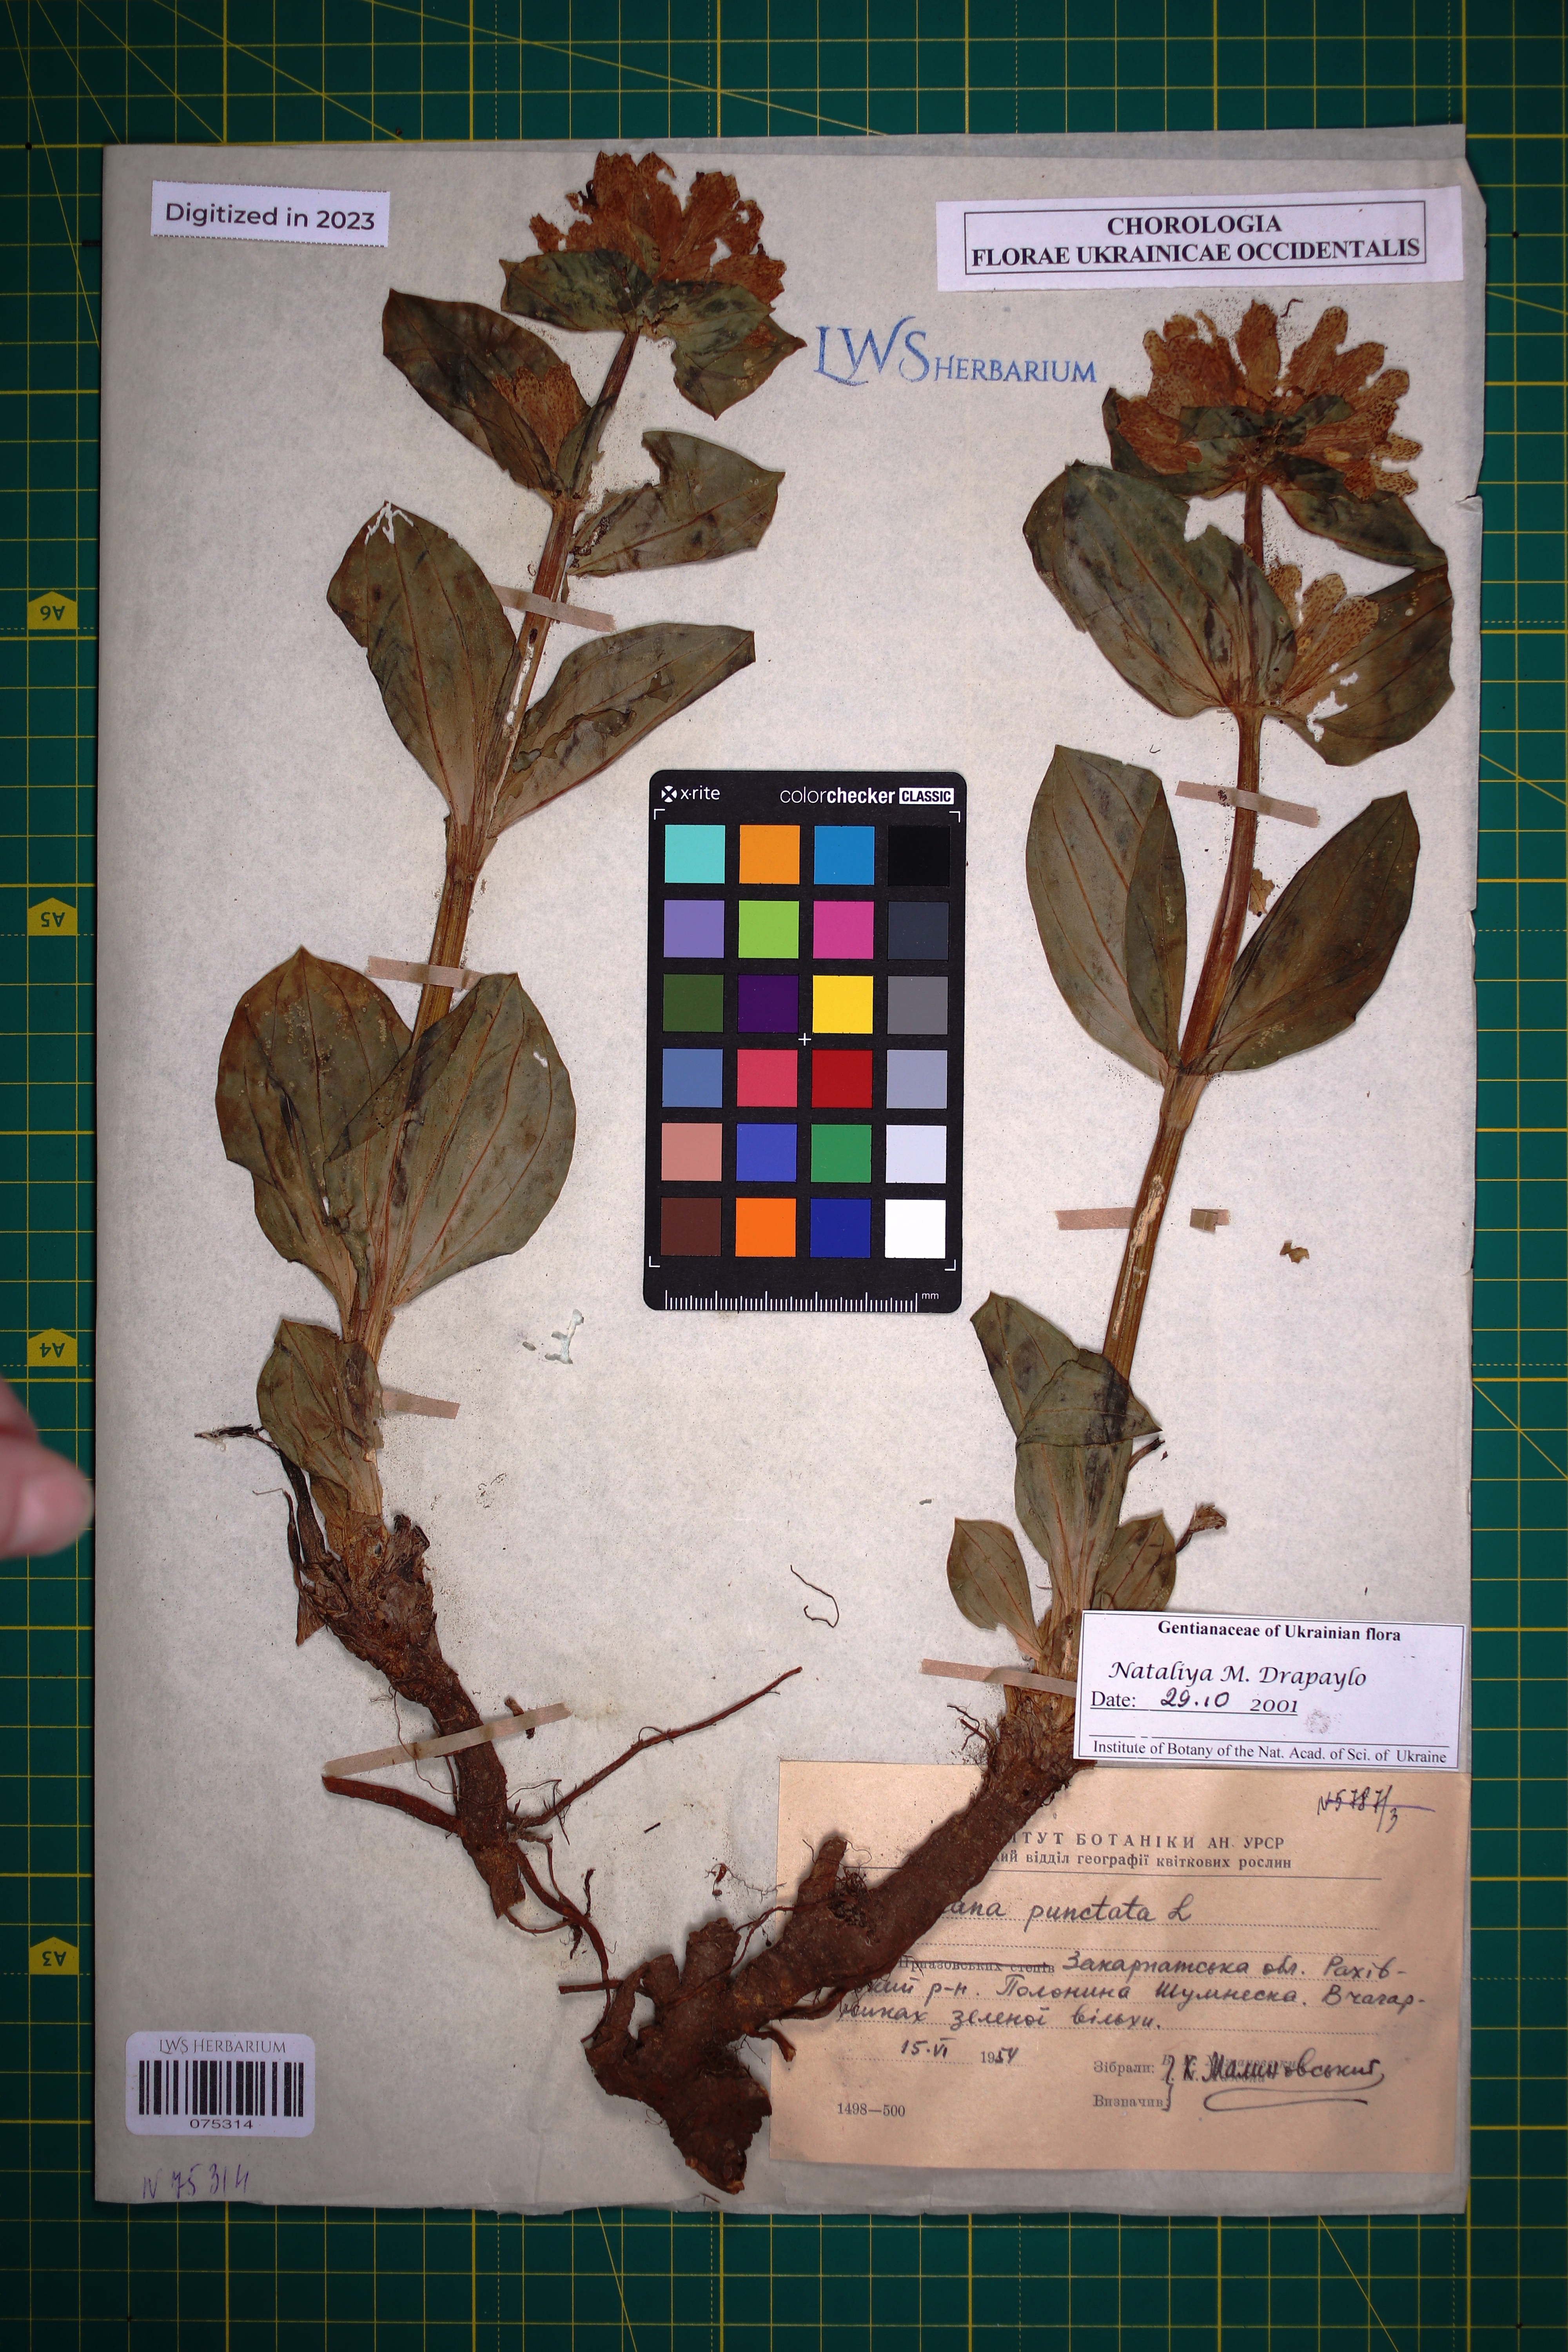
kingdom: Plantae
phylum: Tracheophyta
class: Magnoliopsida
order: Gentianales
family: Gentianaceae
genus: Gentiana
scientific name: Gentiana punctata
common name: Spotted gentian
